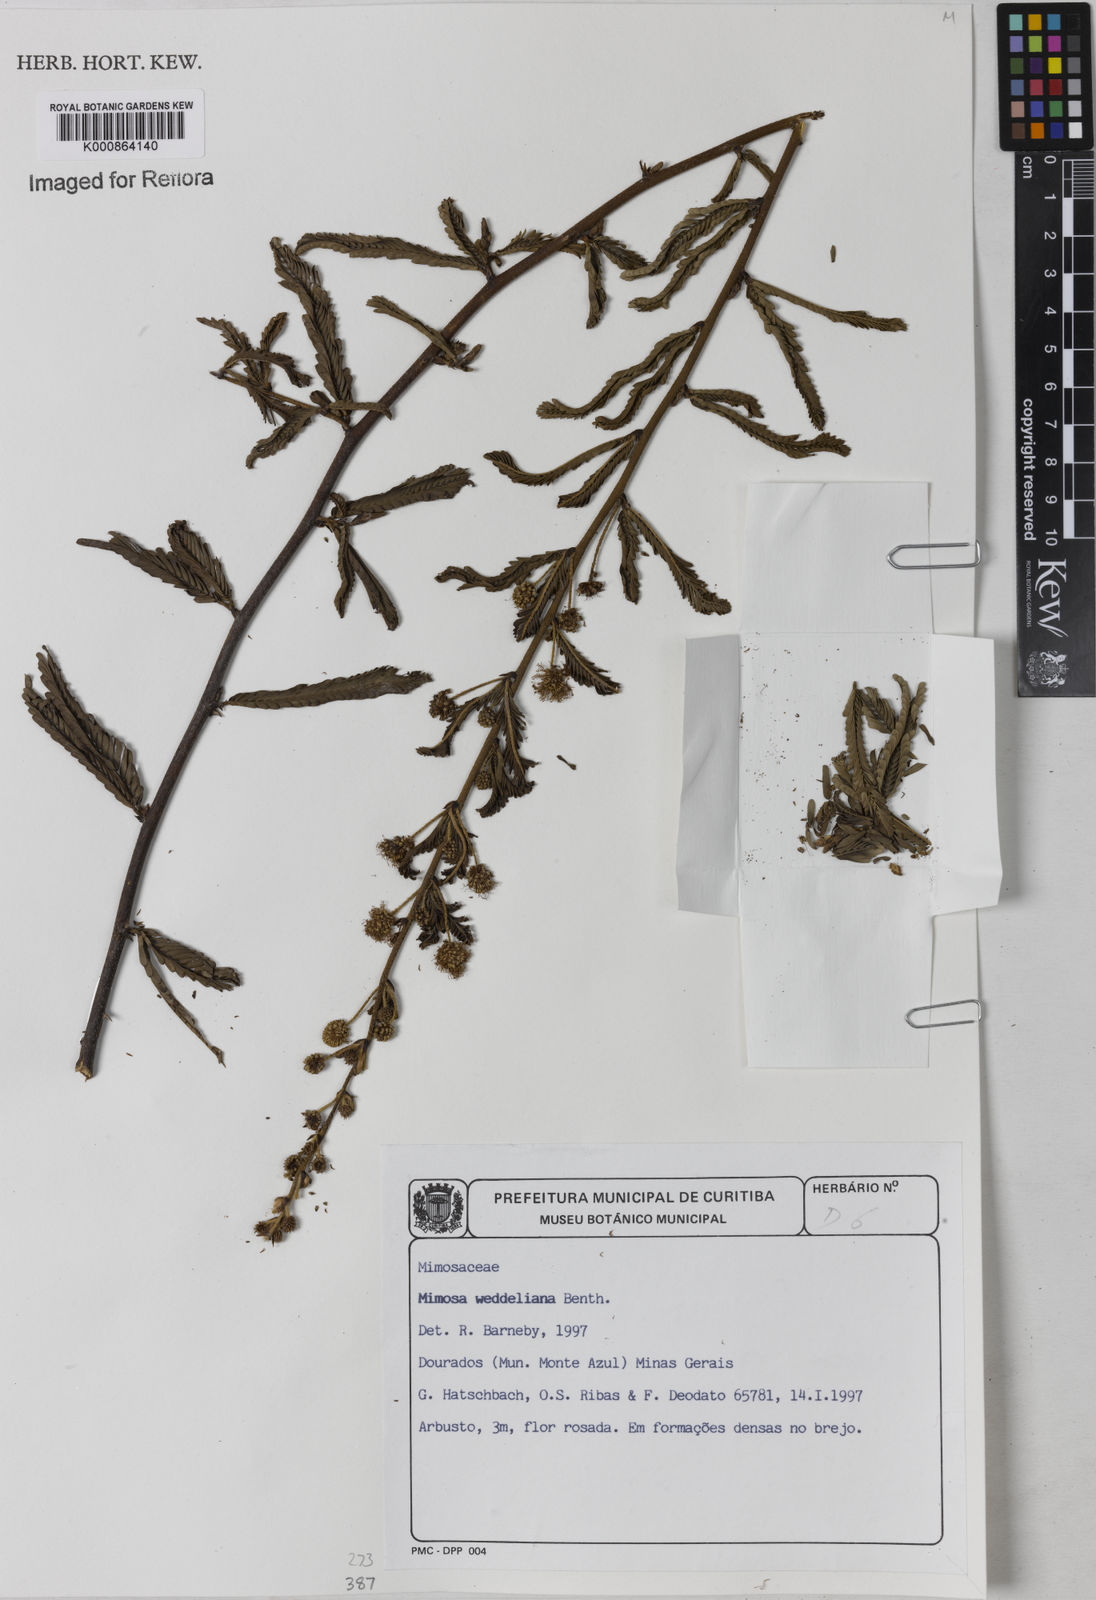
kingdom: Plantae
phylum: Tracheophyta
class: Magnoliopsida
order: Fabales
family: Fabaceae
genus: Mimosa
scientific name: Mimosa weddelliana
